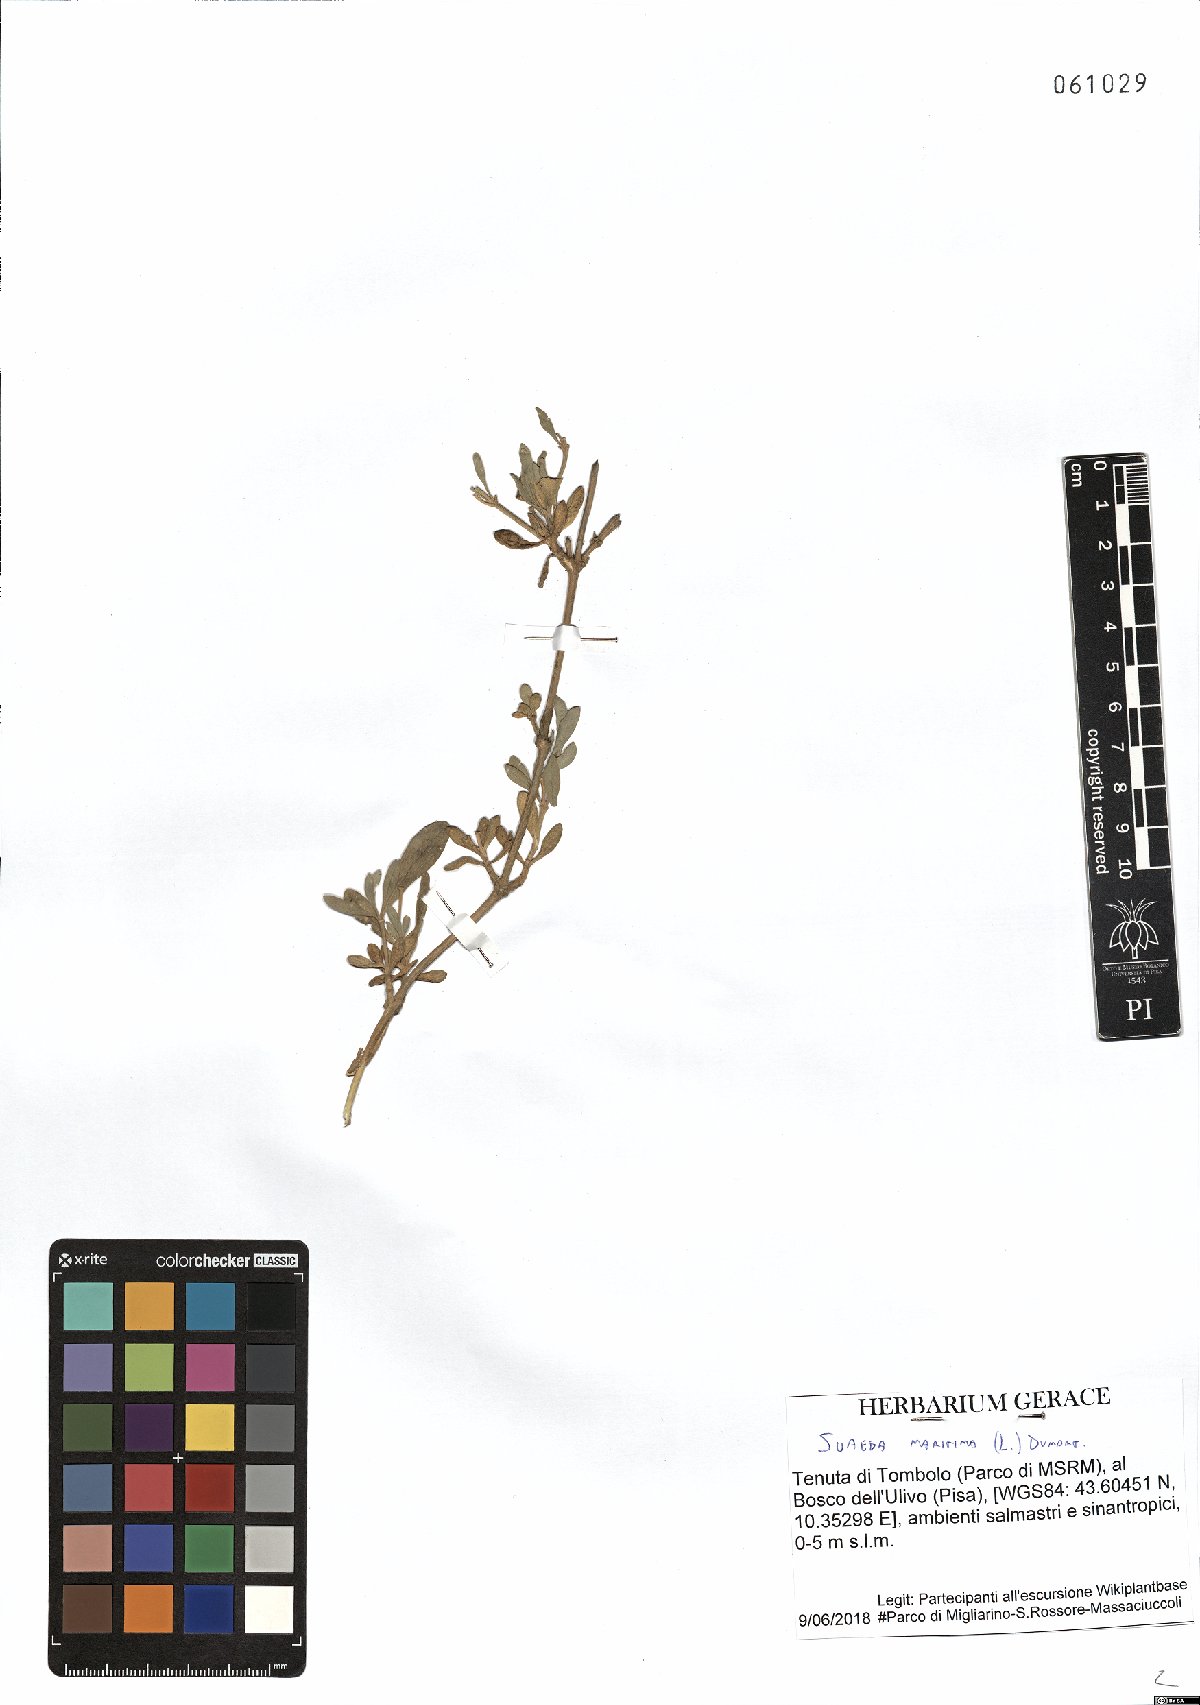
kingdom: Plantae
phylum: Tracheophyta
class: Magnoliopsida
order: Caryophyllales
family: Amaranthaceae
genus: Suaeda
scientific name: Suaeda maritima
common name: Annual sea-blite
